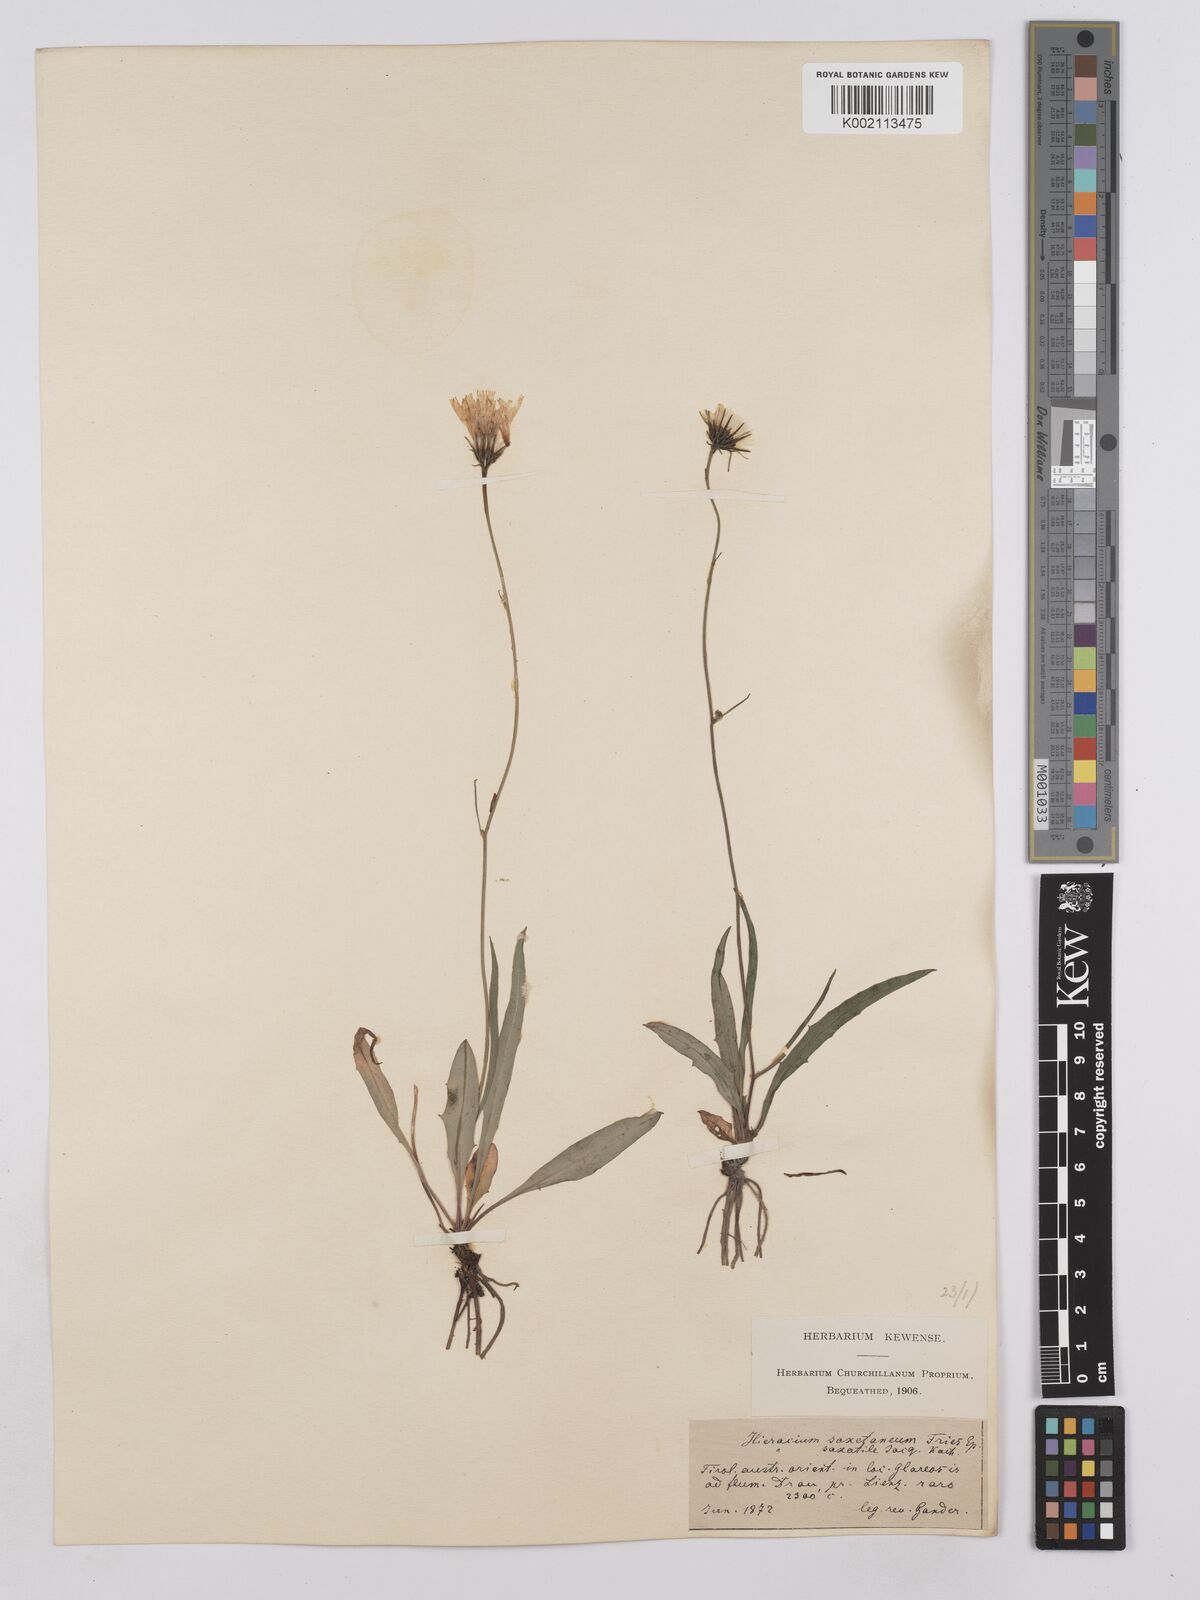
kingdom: Plantae
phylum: Tracheophyta
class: Magnoliopsida
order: Asterales
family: Asteraceae
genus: Hieracium
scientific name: Hieracium saxatile
